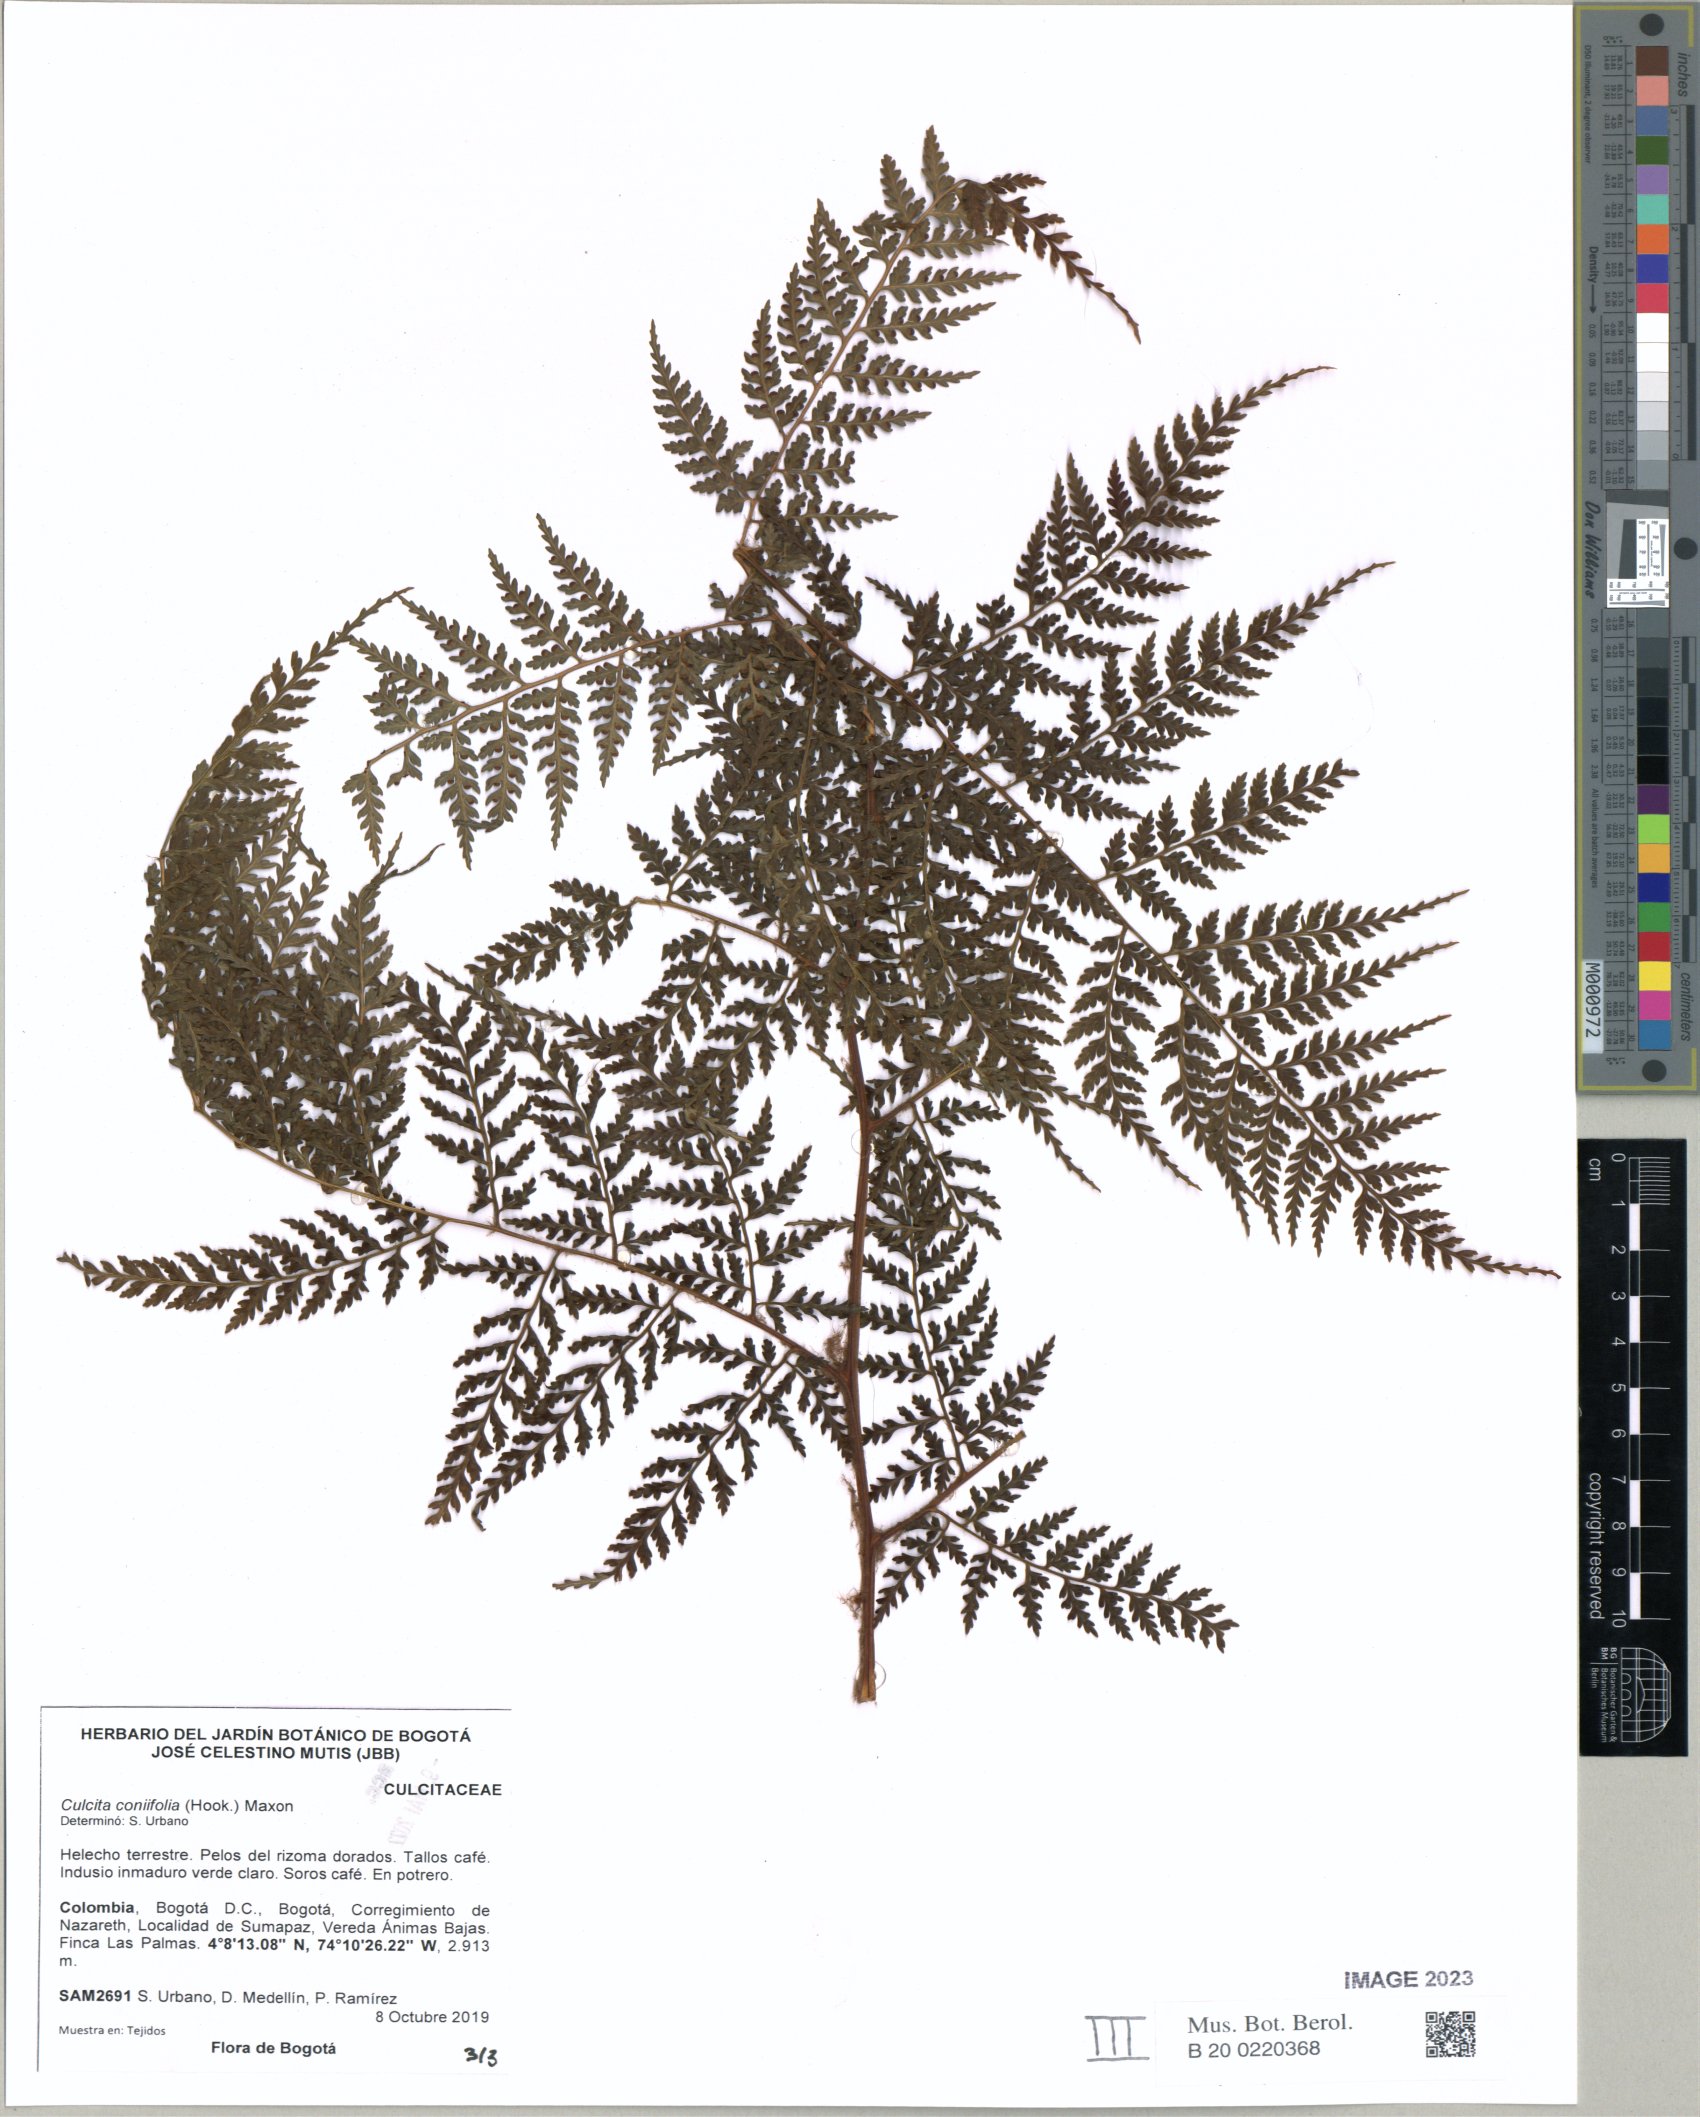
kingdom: Plantae
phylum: Tracheophyta
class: Polypodiopsida
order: Cyatheales
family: Culcitaceae
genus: Culcita
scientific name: Culcita coniifolia
